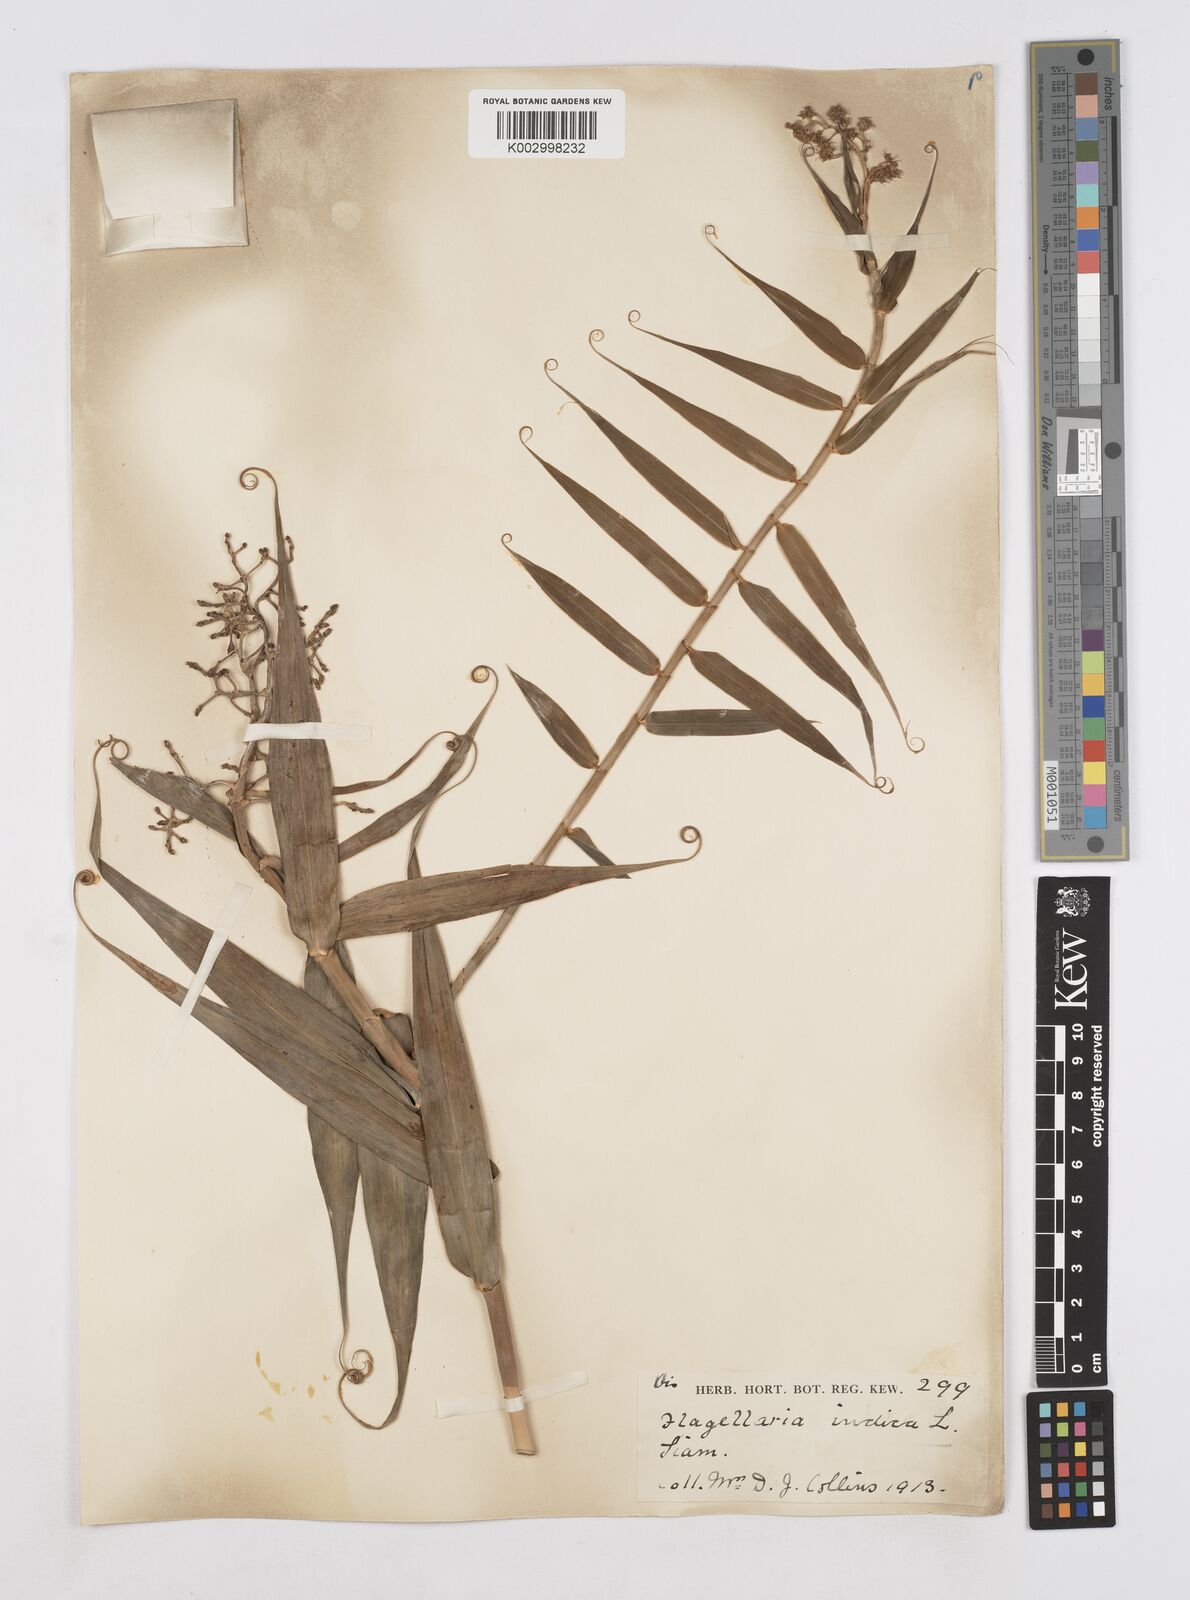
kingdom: Plantae
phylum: Tracheophyta
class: Liliopsida
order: Poales
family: Flagellariaceae
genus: Flagellaria
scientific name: Flagellaria indica
